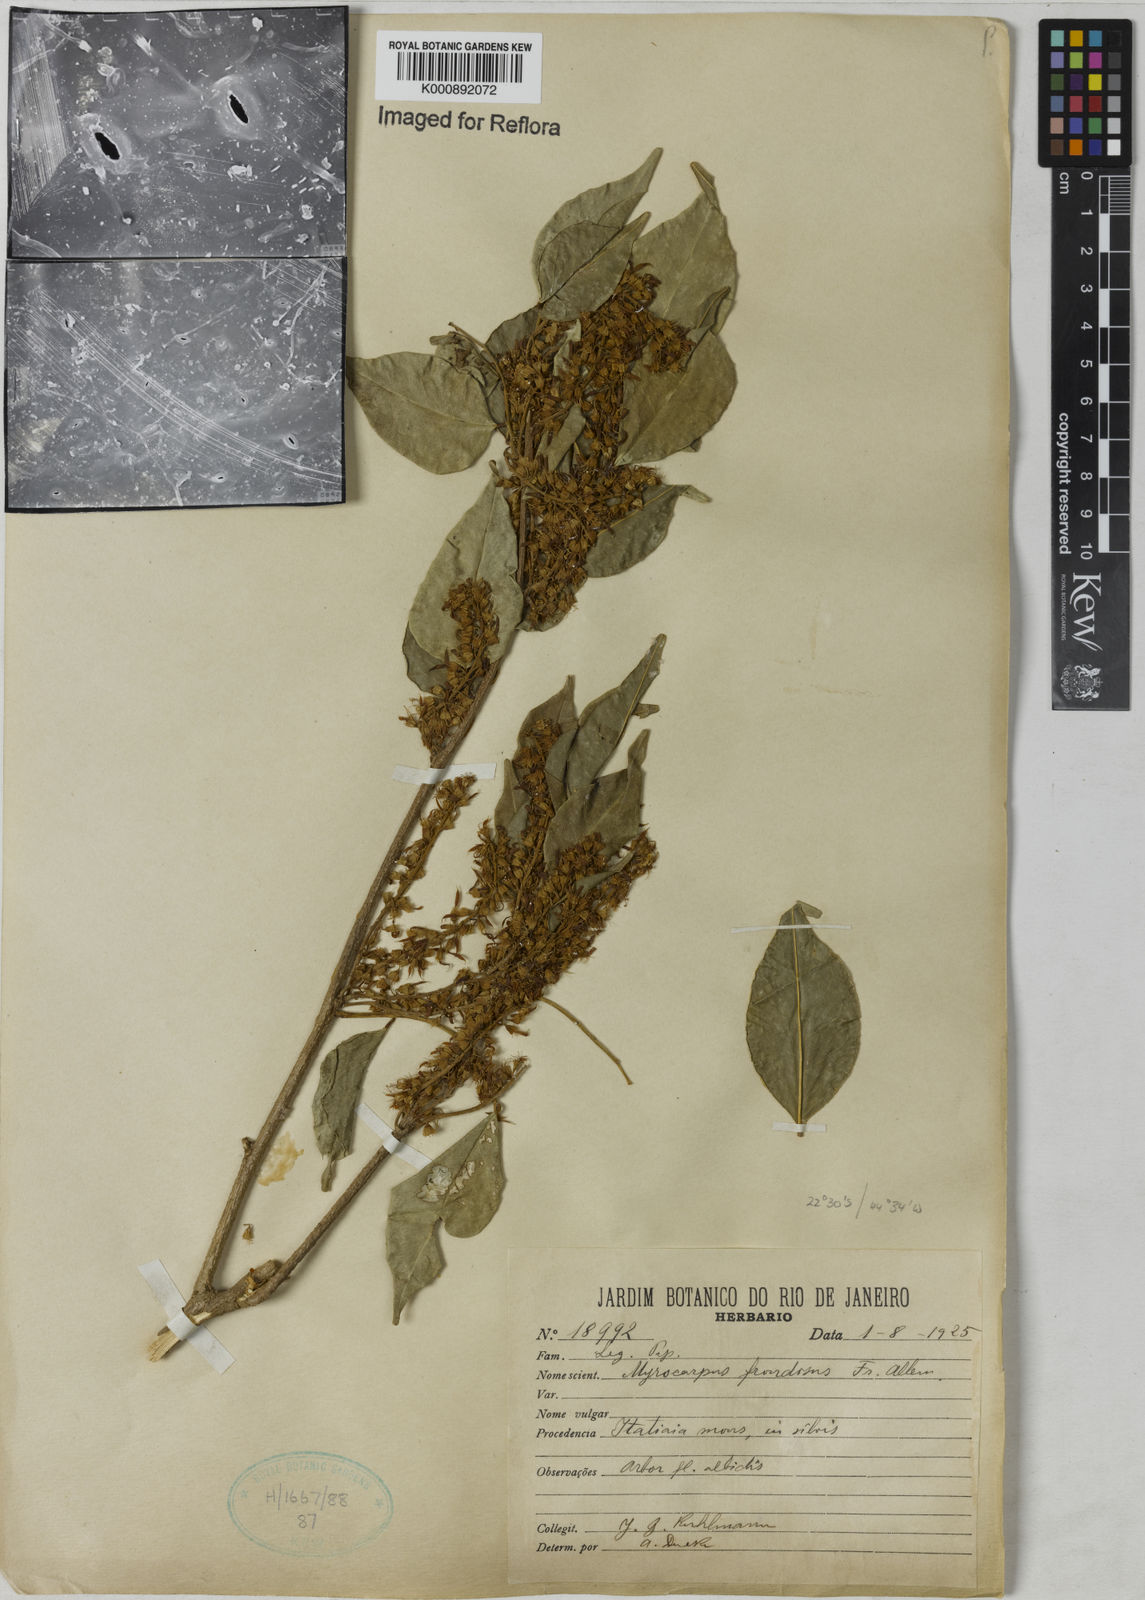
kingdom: Plantae
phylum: Tracheophyta
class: Magnoliopsida
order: Fabales
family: Fabaceae
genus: Myrocarpus
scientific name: Myrocarpus
